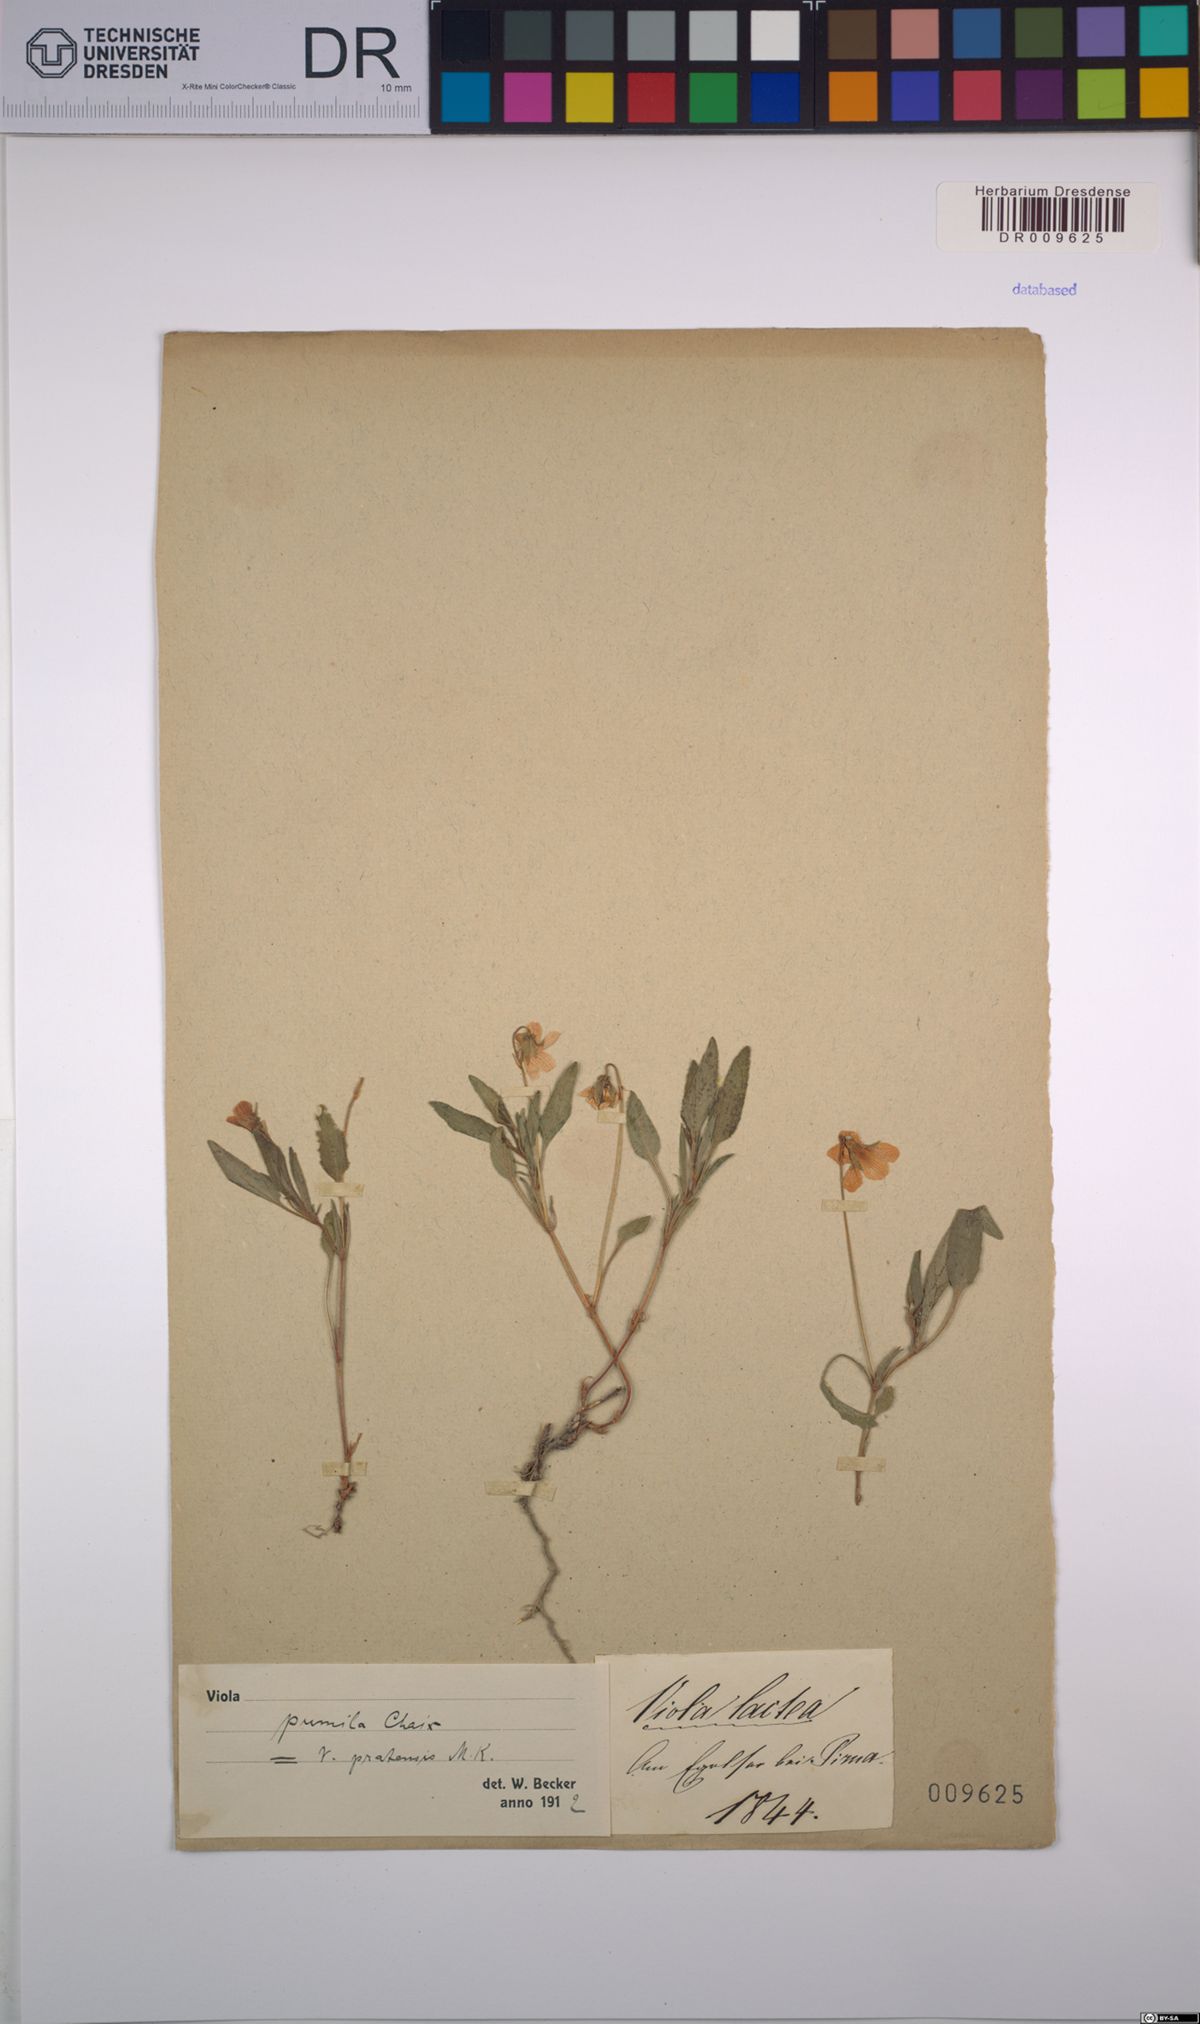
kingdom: Plantae
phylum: Tracheophyta
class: Magnoliopsida
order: Malpighiales
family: Violaceae
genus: Viola
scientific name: Viola pumila
